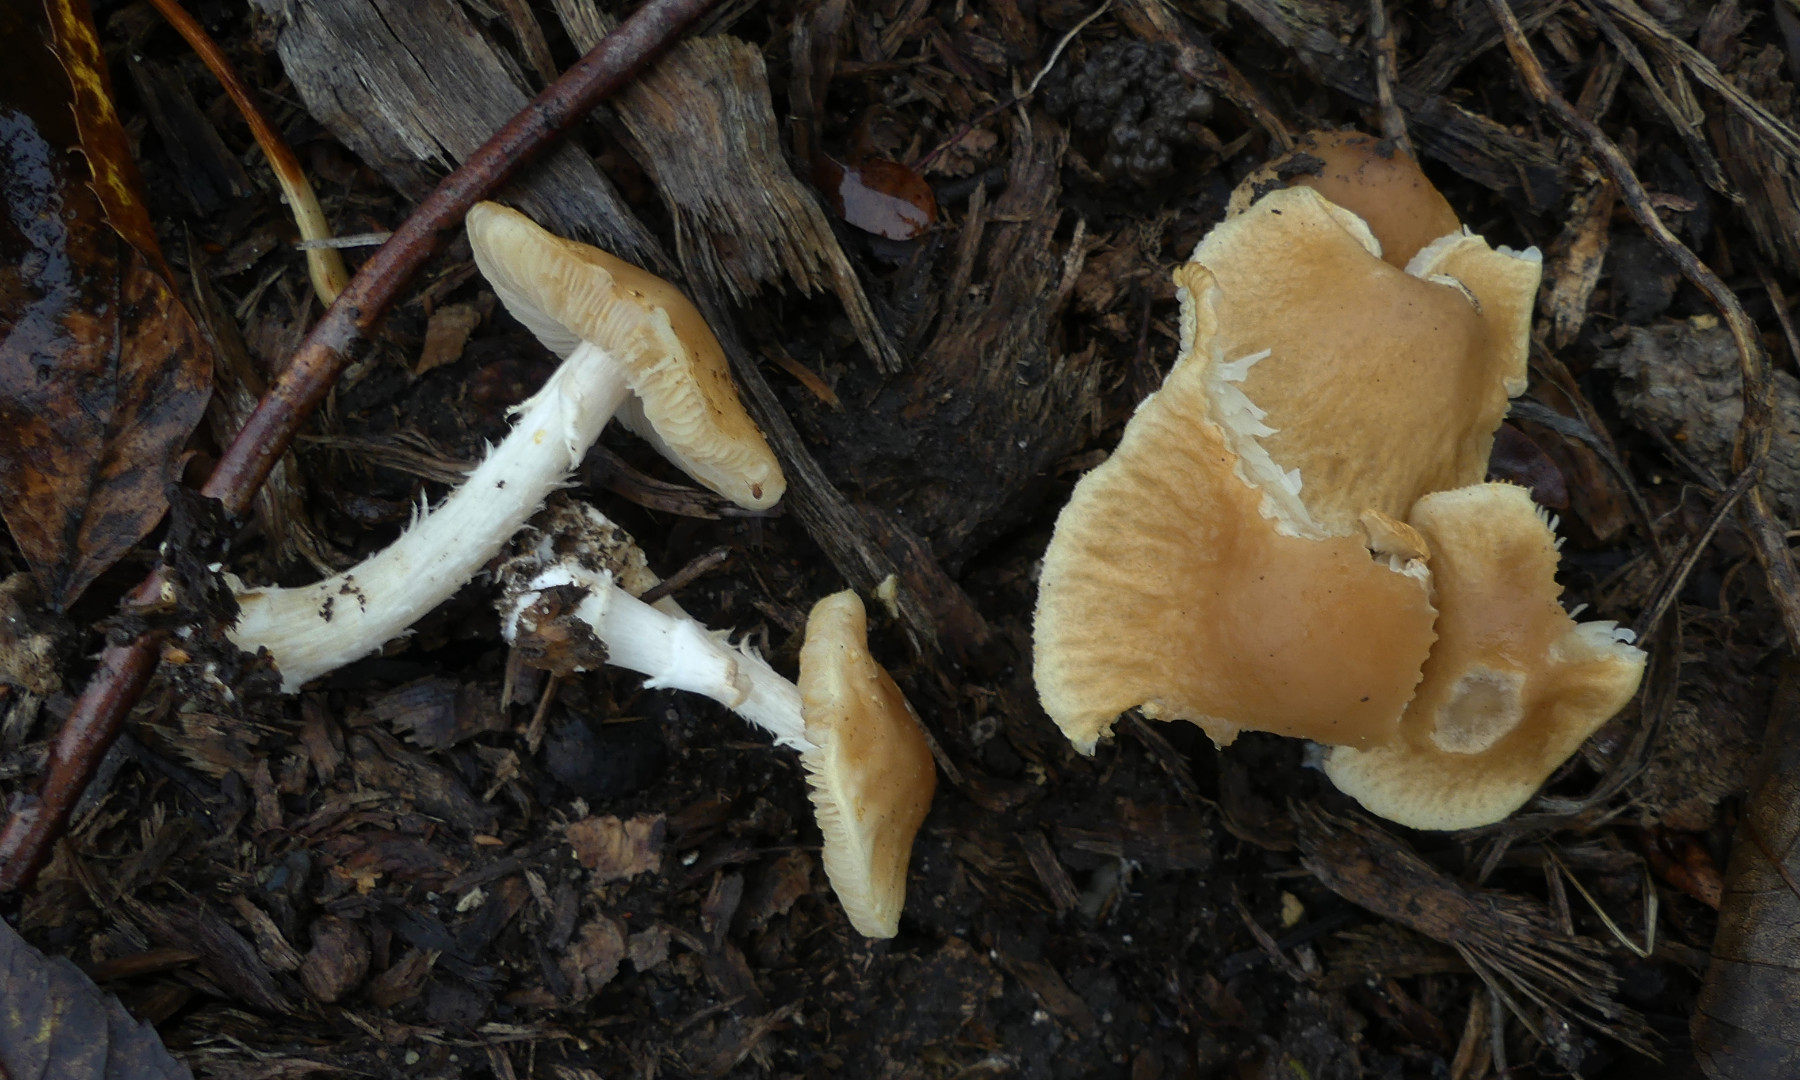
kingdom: Fungi
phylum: Basidiomycota
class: Agaricomycetes
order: Agaricales
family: Strophariaceae
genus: Agrocybe
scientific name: Agrocybe rivulosa
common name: året agerhat
